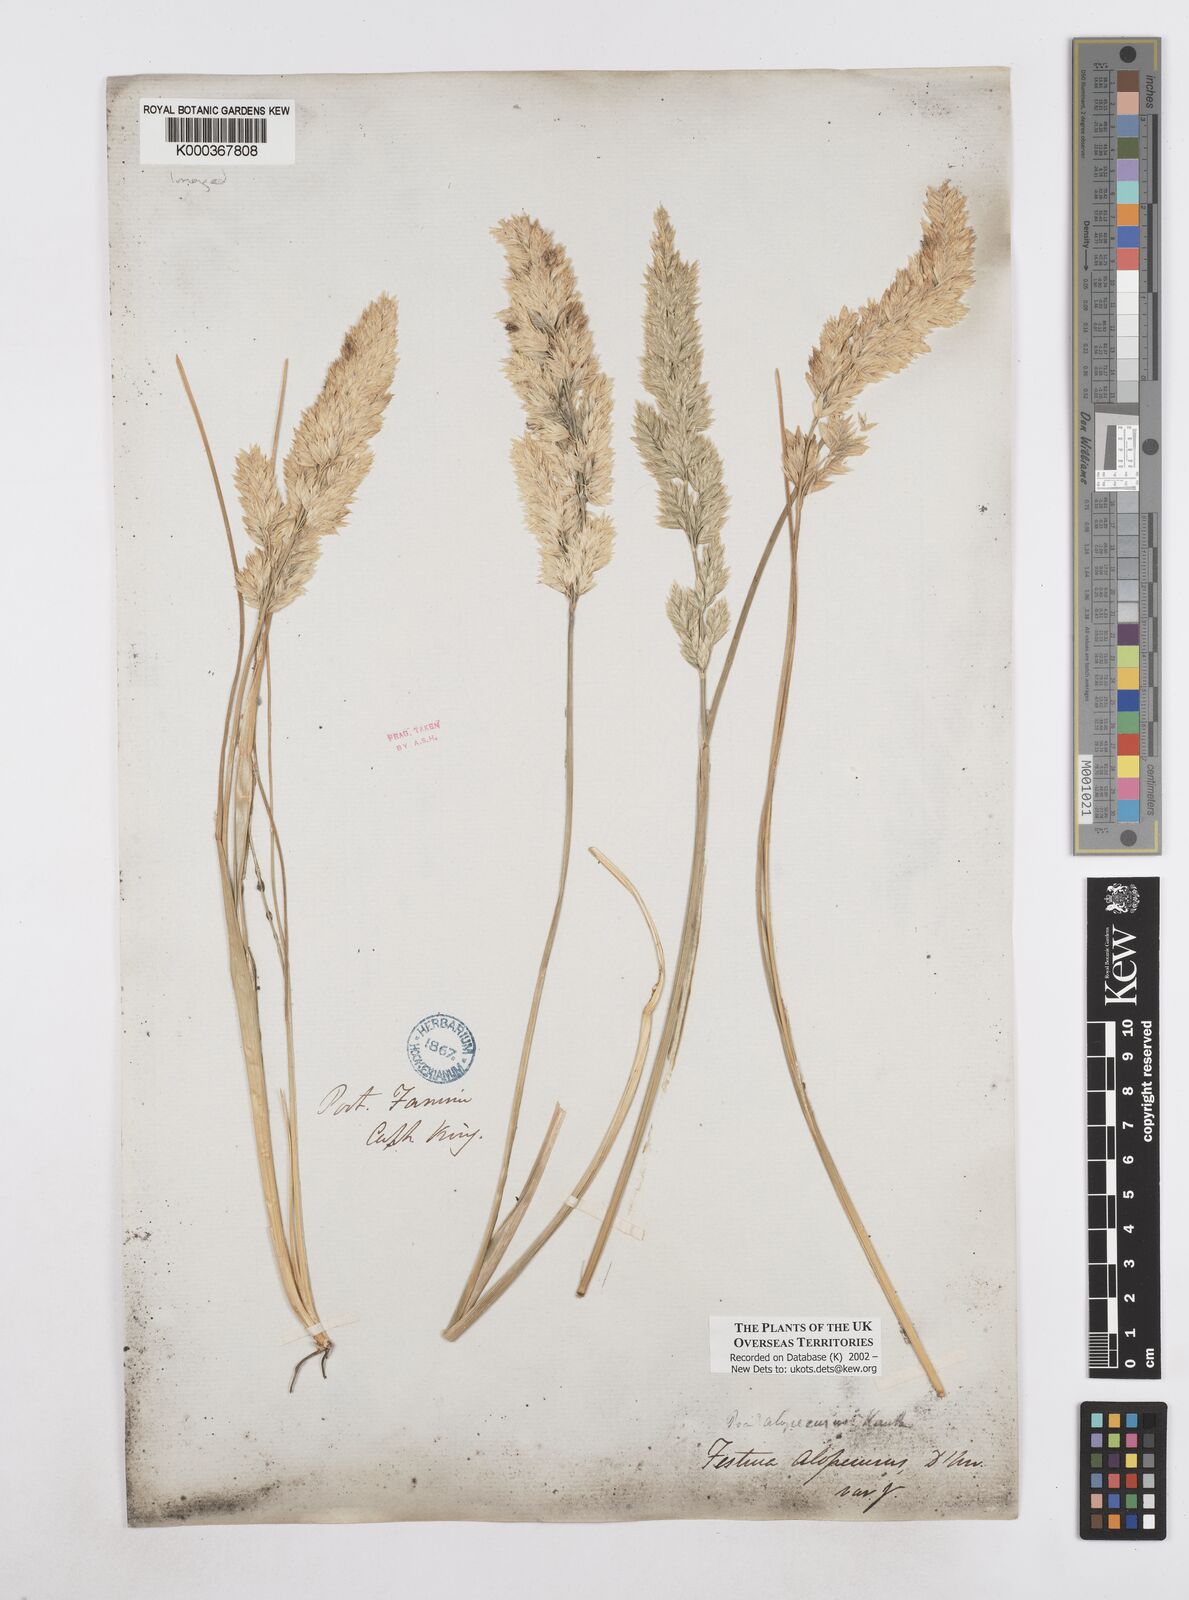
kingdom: Plantae
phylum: Tracheophyta
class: Liliopsida
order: Poales
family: Poaceae
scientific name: Poaceae
